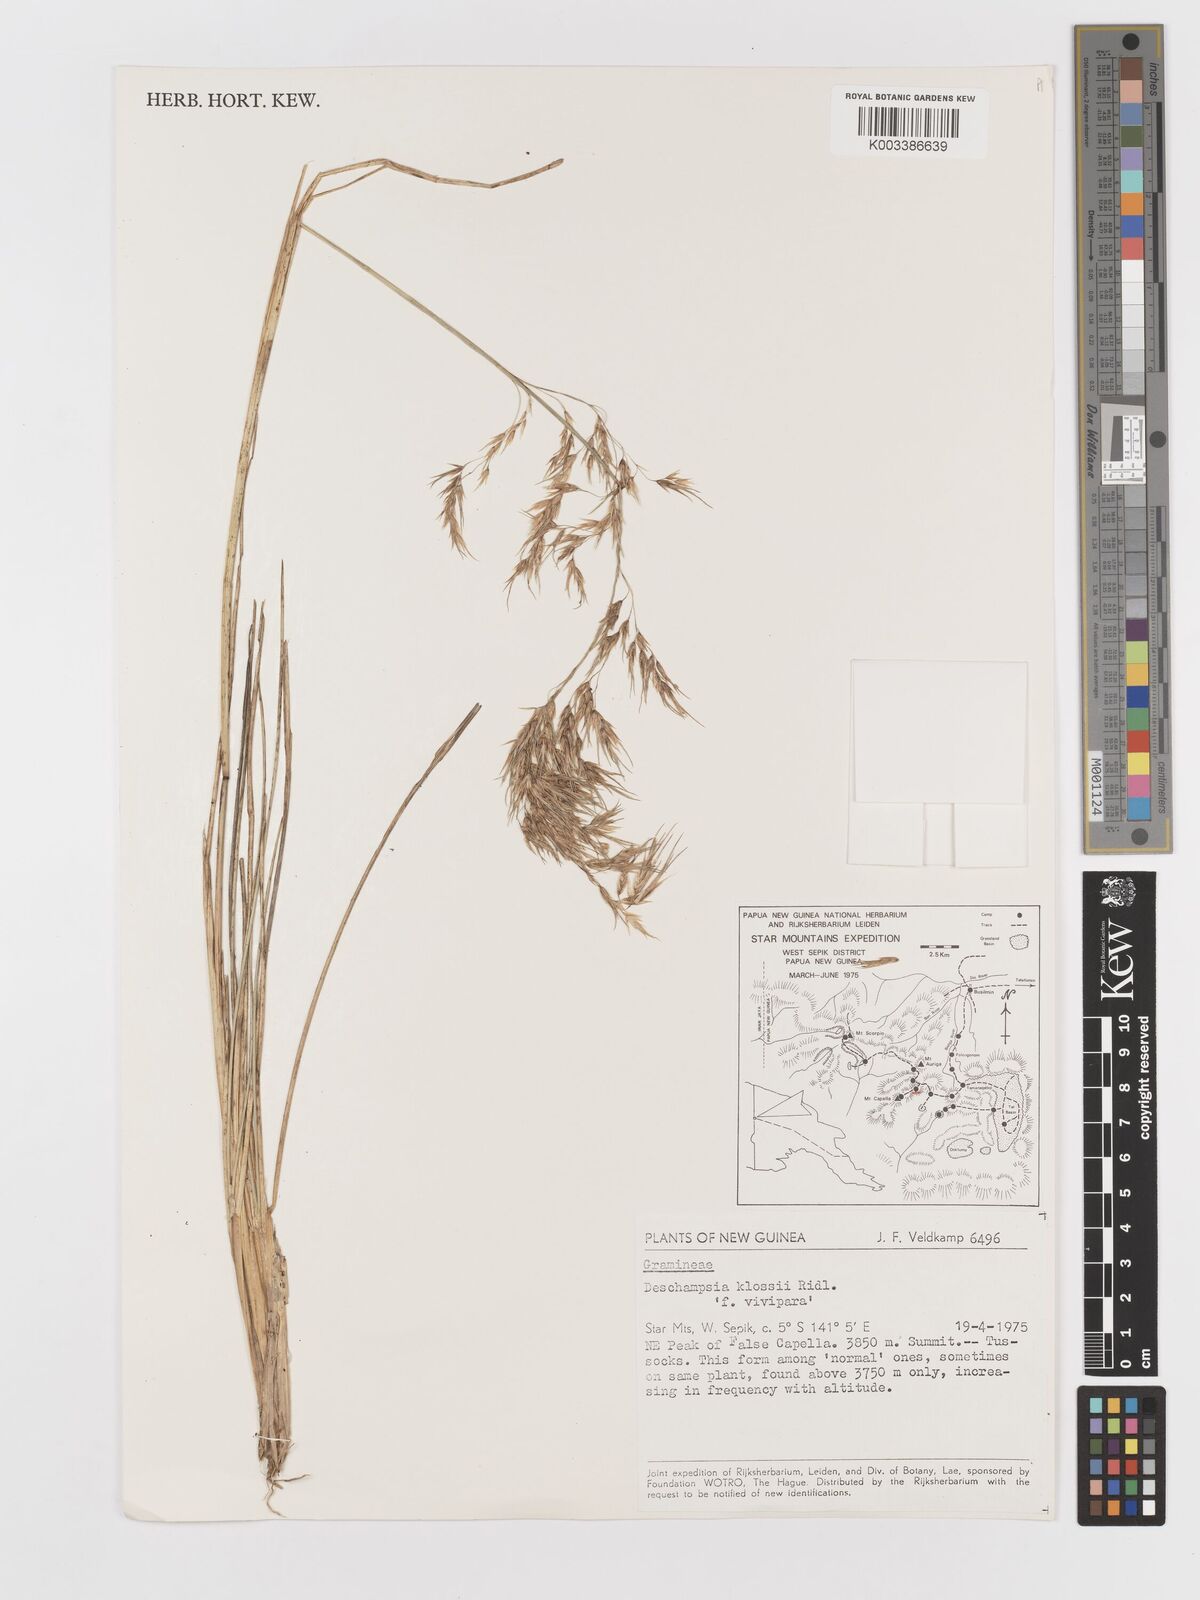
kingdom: Plantae
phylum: Tracheophyta
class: Liliopsida
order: Poales
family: Poaceae
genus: Deschampsia
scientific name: Deschampsia klossii
